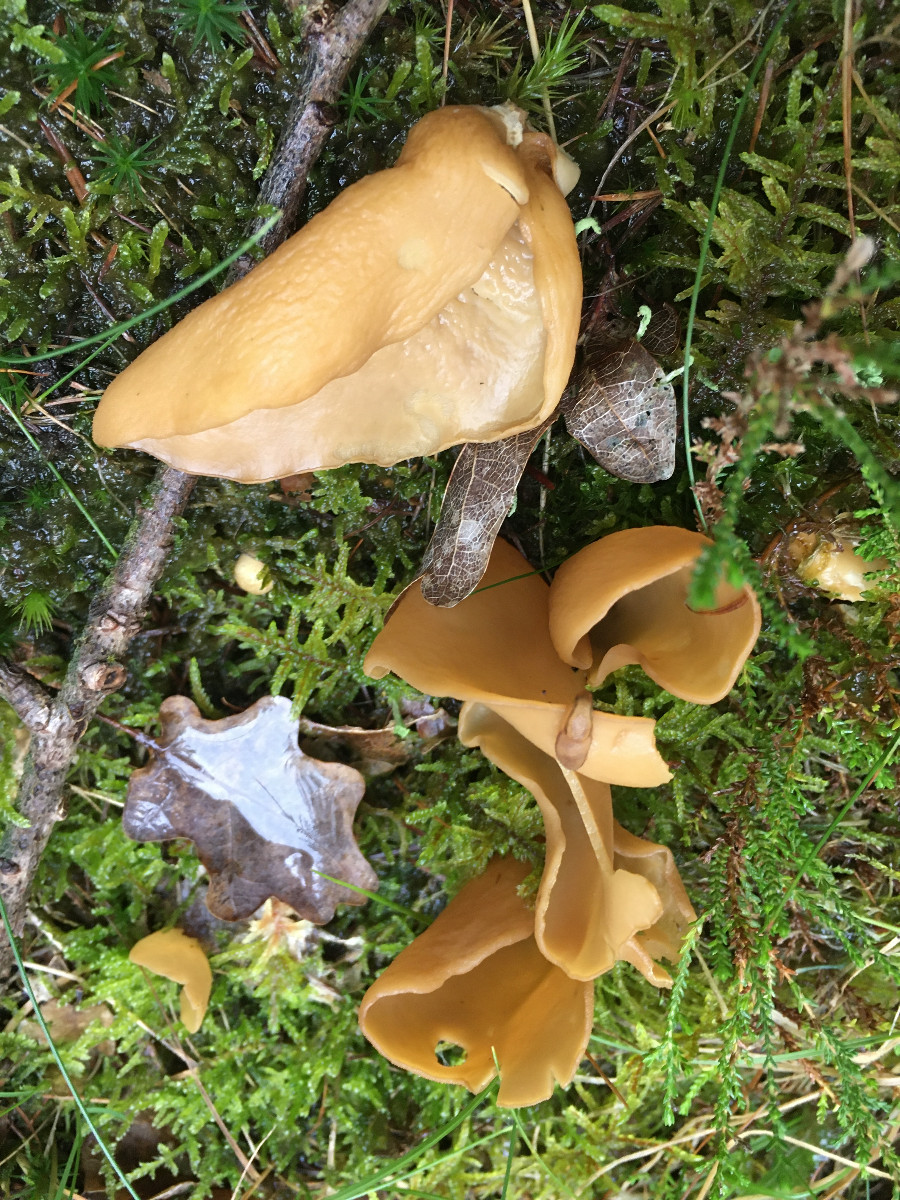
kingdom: Fungi
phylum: Ascomycota
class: Pezizomycetes
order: Pezizales
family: Otideaceae
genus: Otidea
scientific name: Otidea
